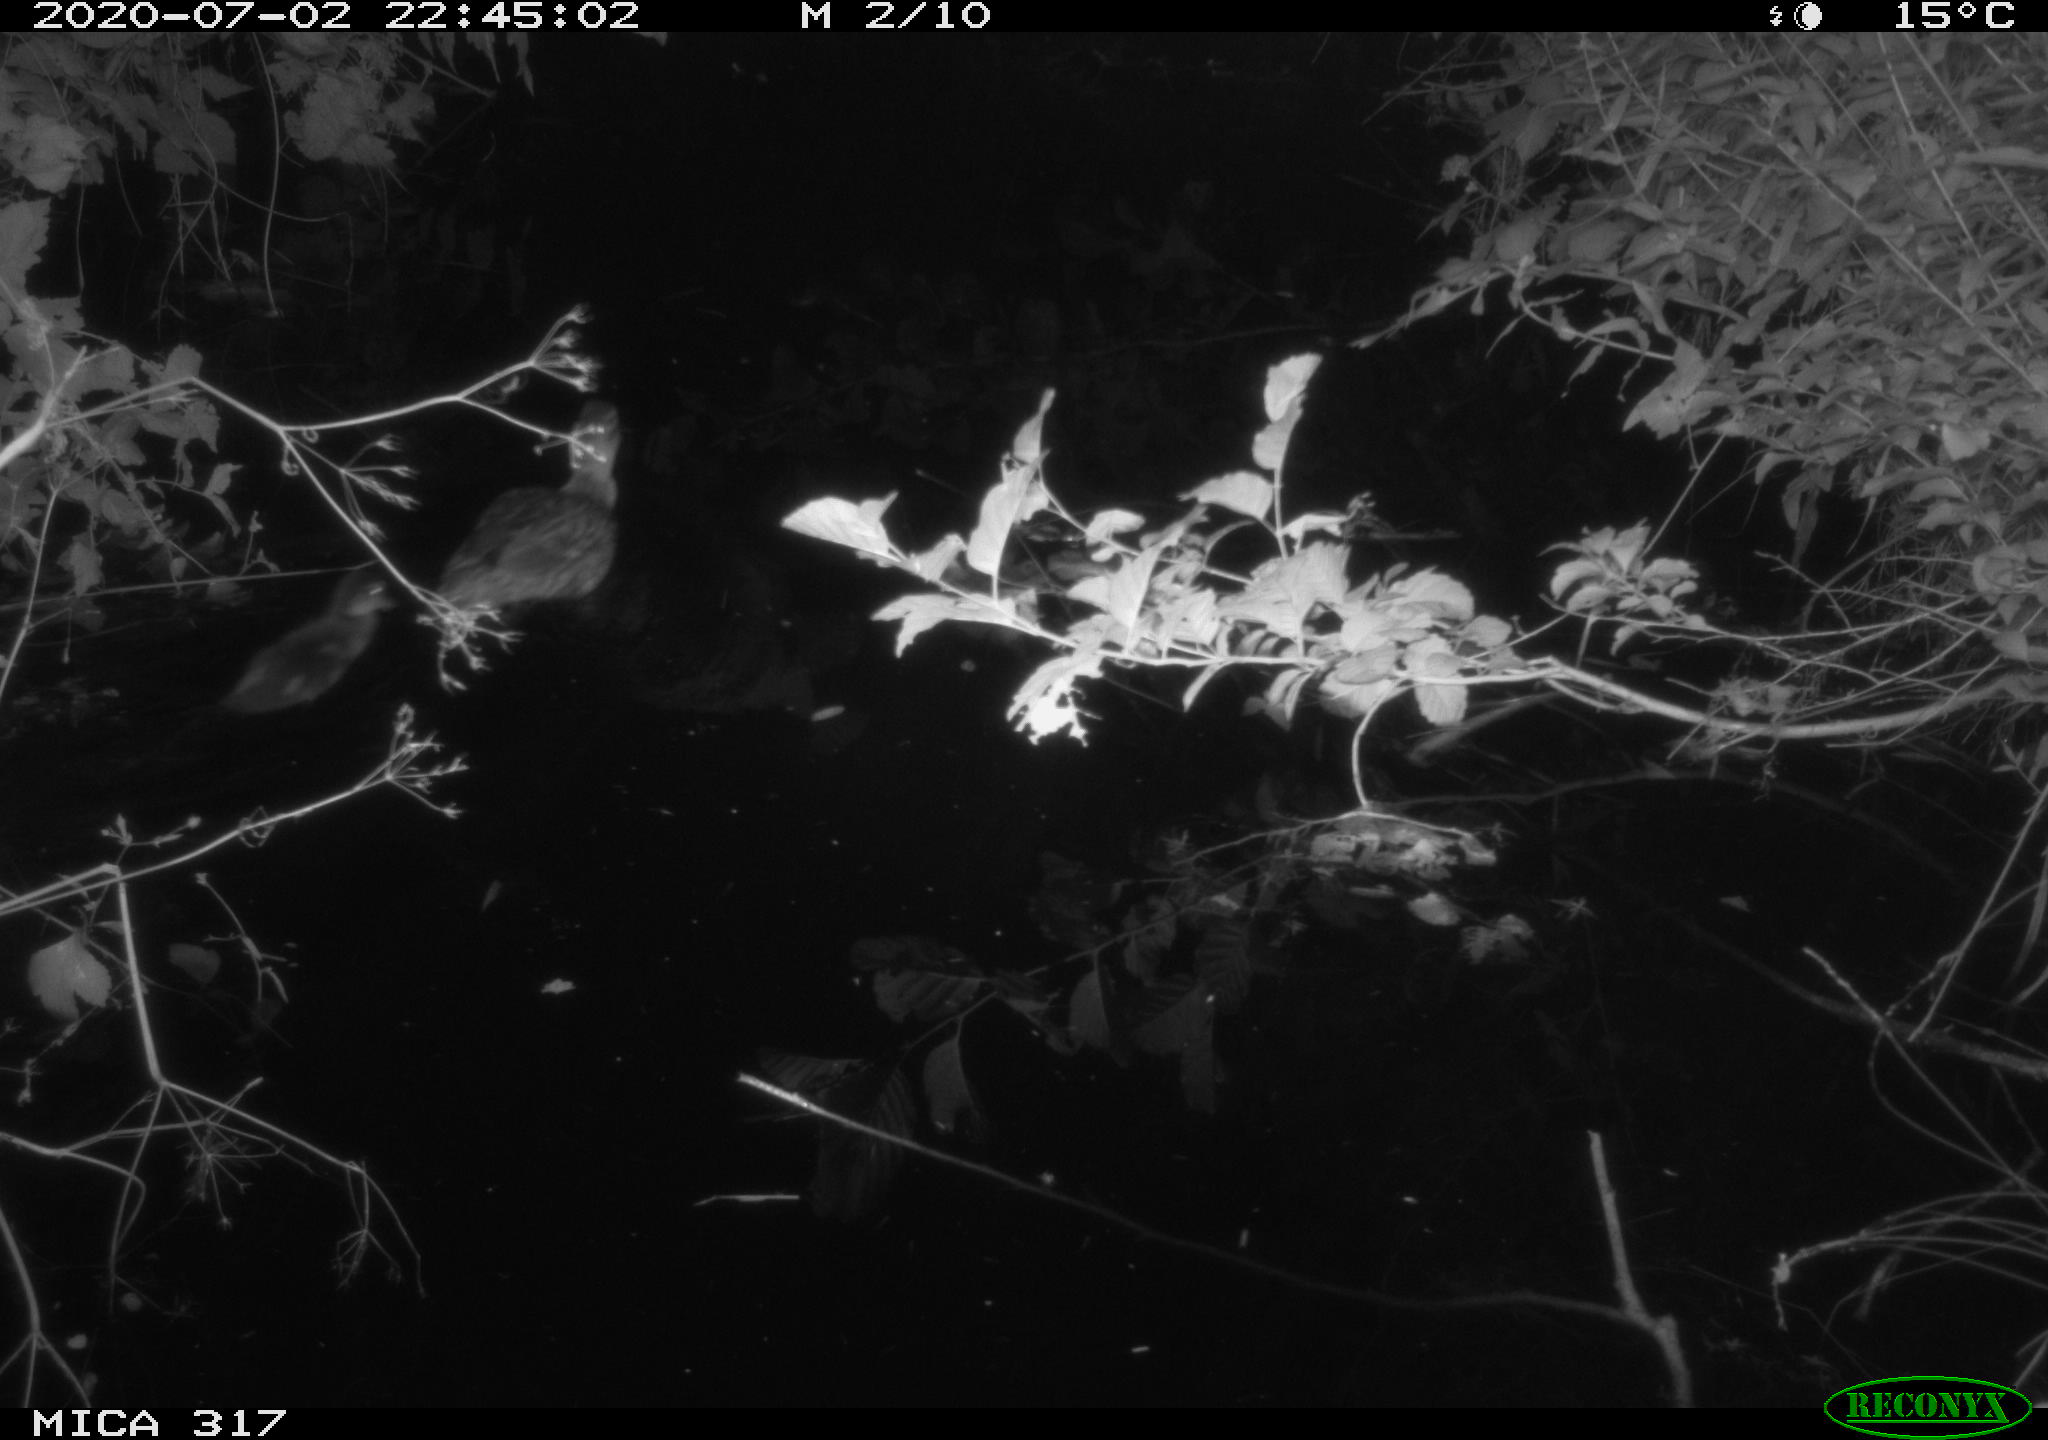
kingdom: Animalia
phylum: Chordata
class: Aves
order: Anseriformes
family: Anatidae
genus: Anas
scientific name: Anas platyrhynchos
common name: Mallard
